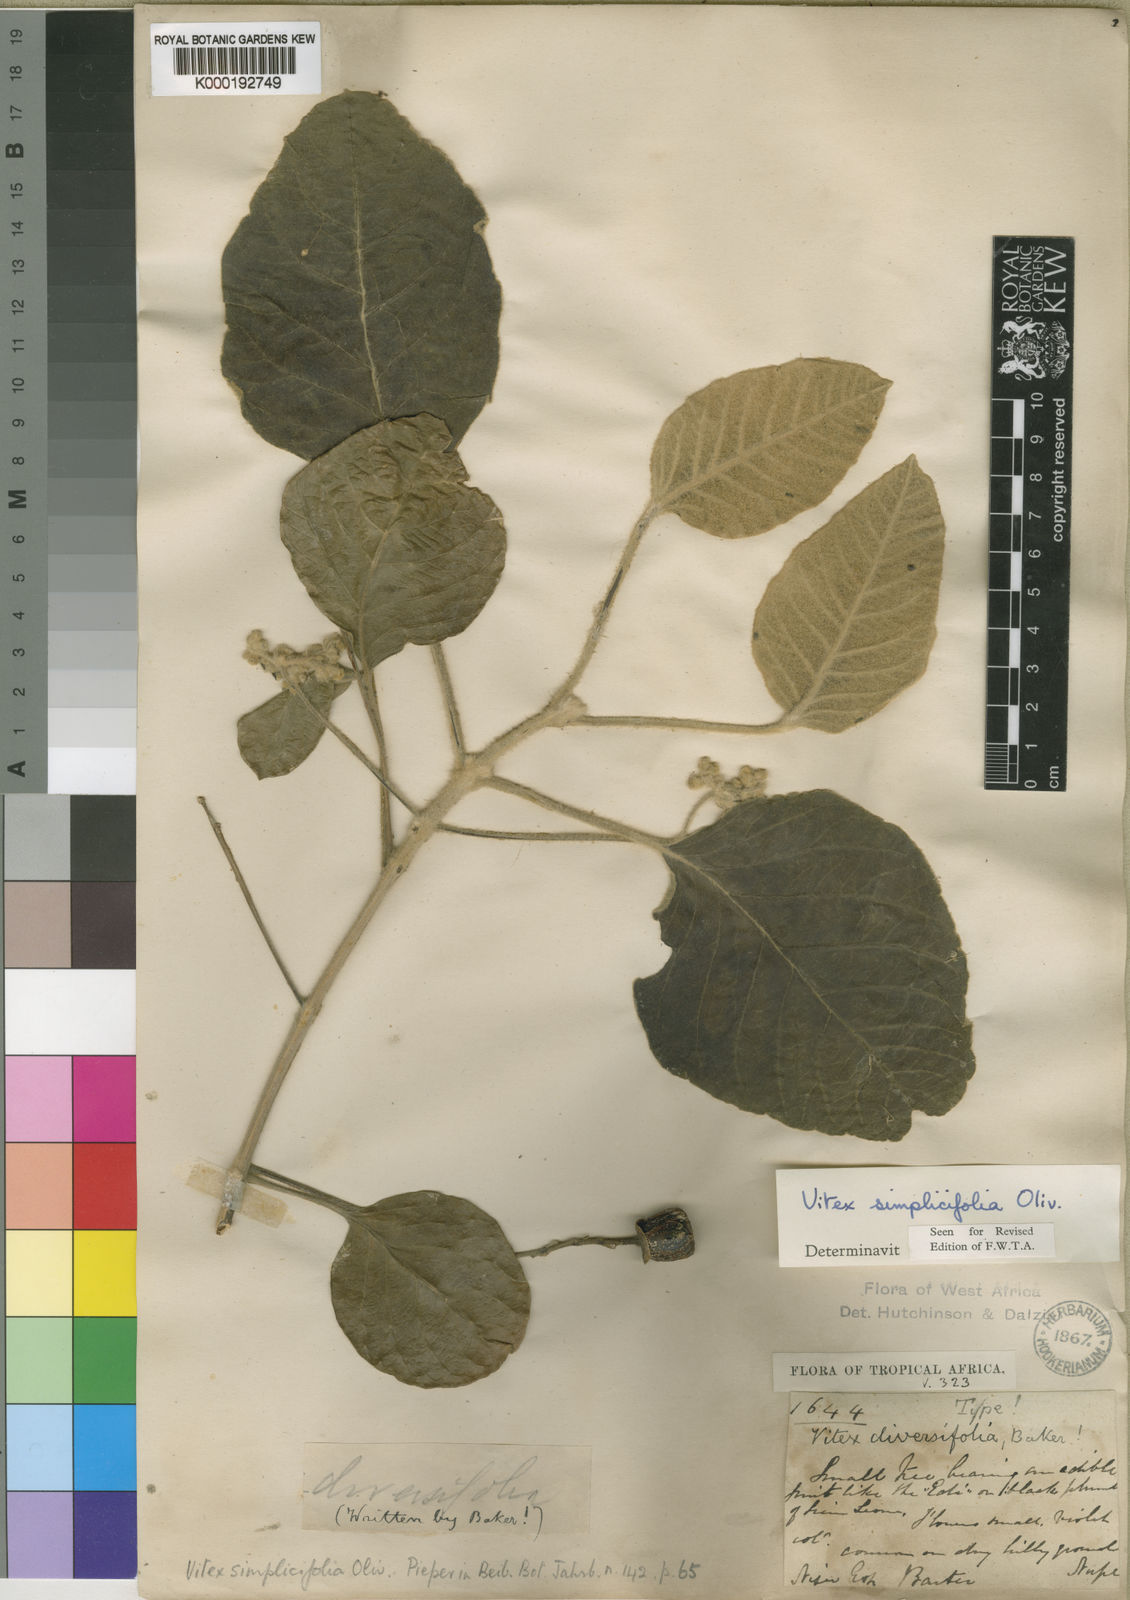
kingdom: Plantae
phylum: Tracheophyta
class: Magnoliopsida
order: Lamiales
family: Lamiaceae
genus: Vitex
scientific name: Vitex madiensis
